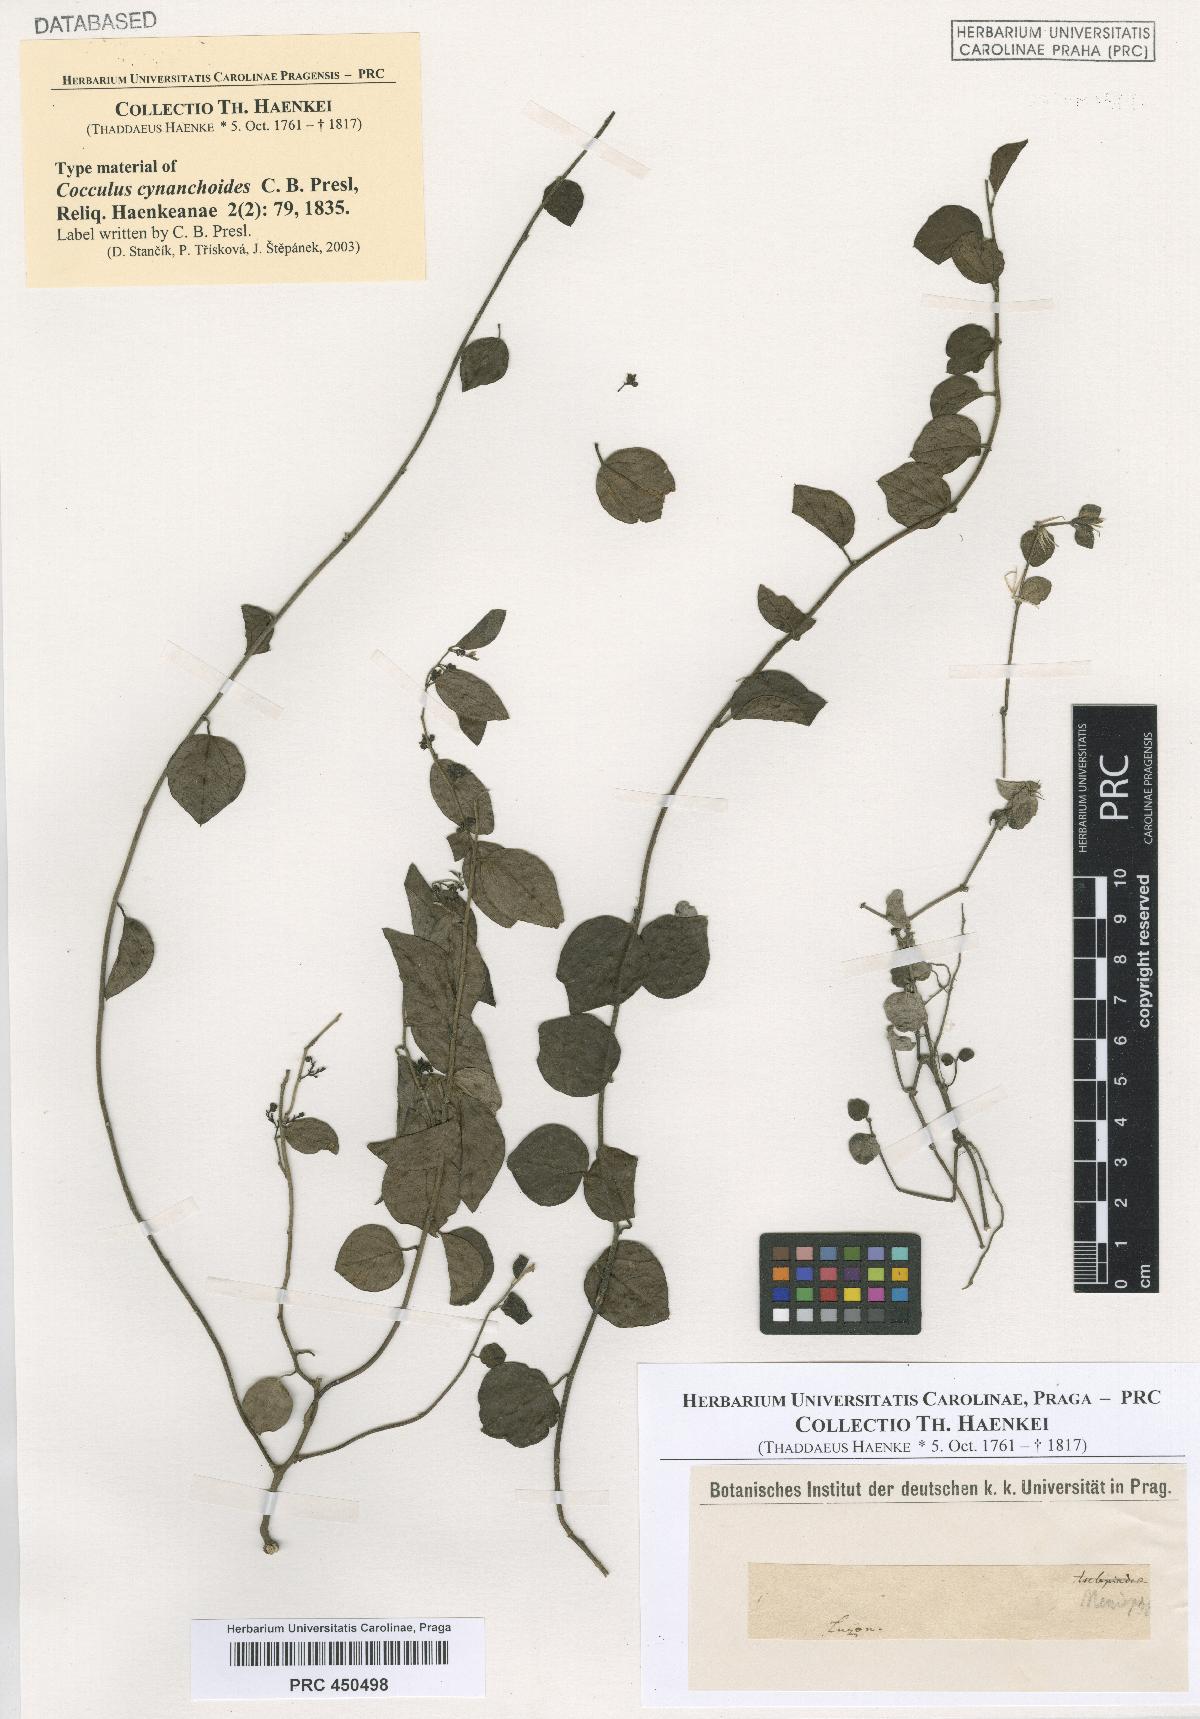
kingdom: Plantae
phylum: Tracheophyta
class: Magnoliopsida
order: Ranunculales
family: Menispermaceae
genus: Cocculus
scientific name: Cocculus orbiculatus
